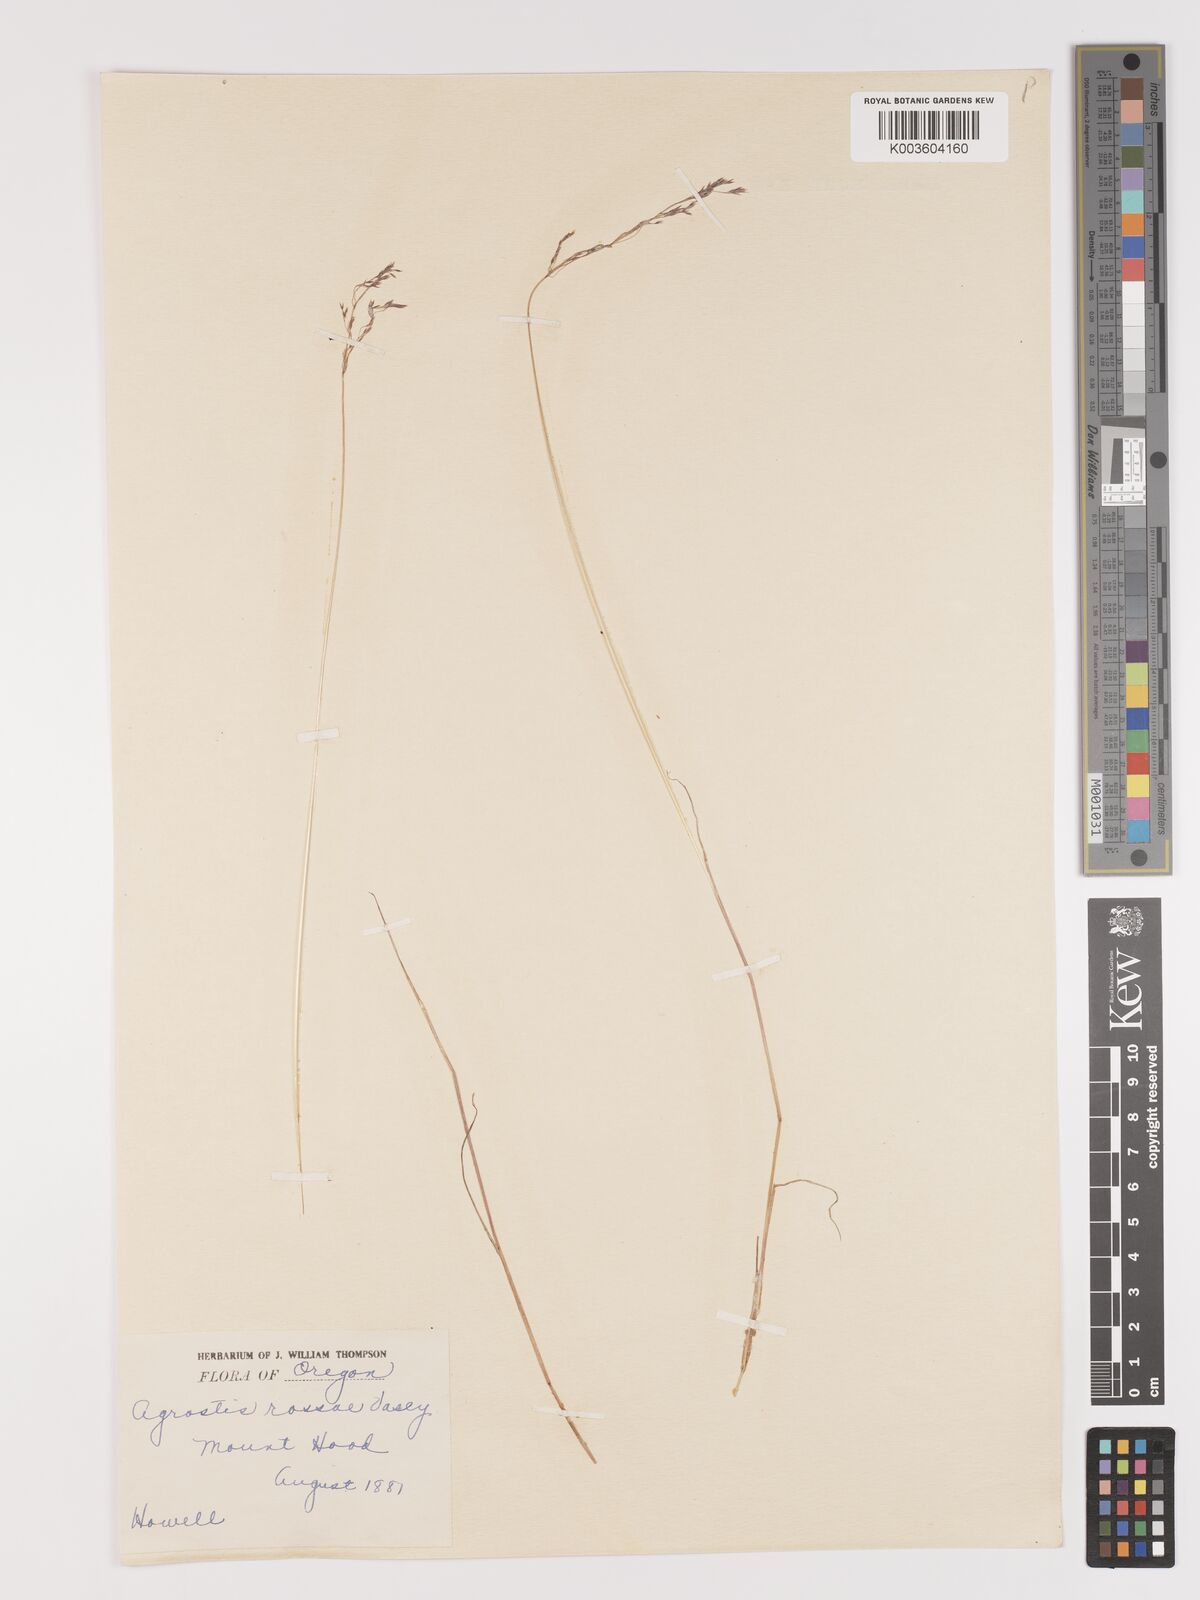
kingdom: Plantae
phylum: Tracheophyta
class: Liliopsida
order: Poales
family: Poaceae
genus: Agrostis
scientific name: Agrostis rossiae
